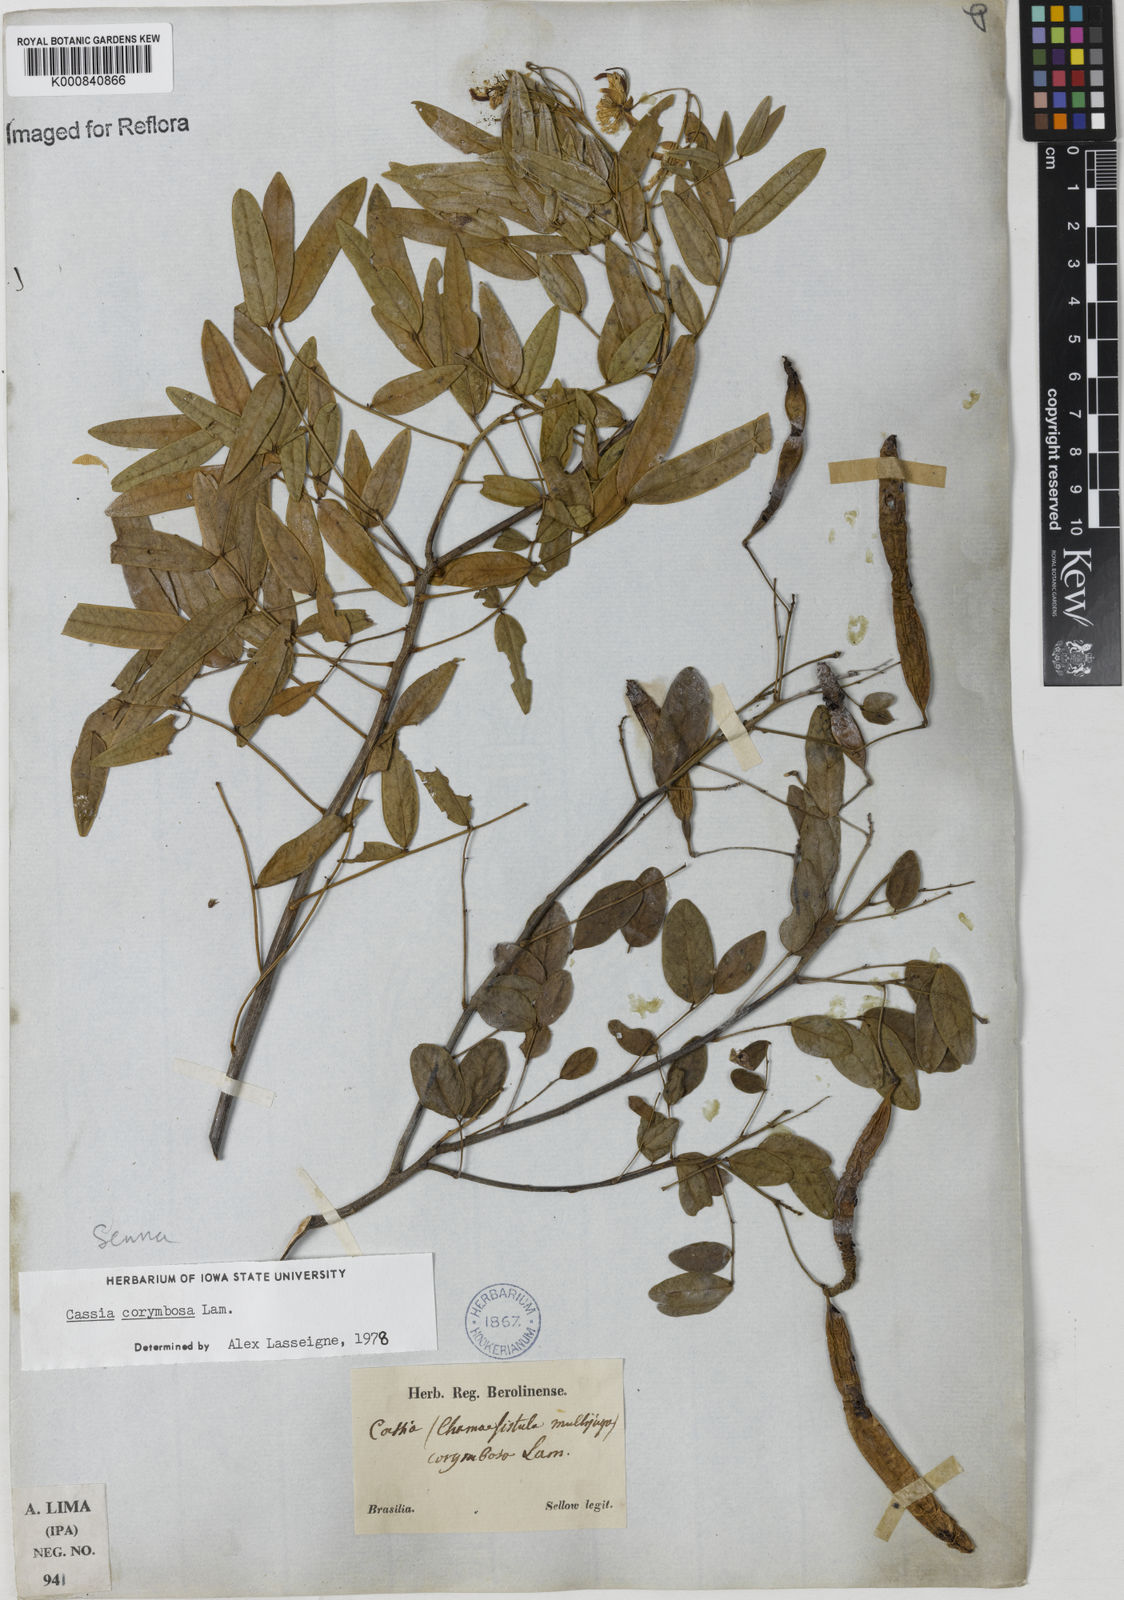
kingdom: Plantae
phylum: Tracheophyta
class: Magnoliopsida
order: Fabales
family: Fabaceae
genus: Senna
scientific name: Senna corymbosa
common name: Argentine senna
